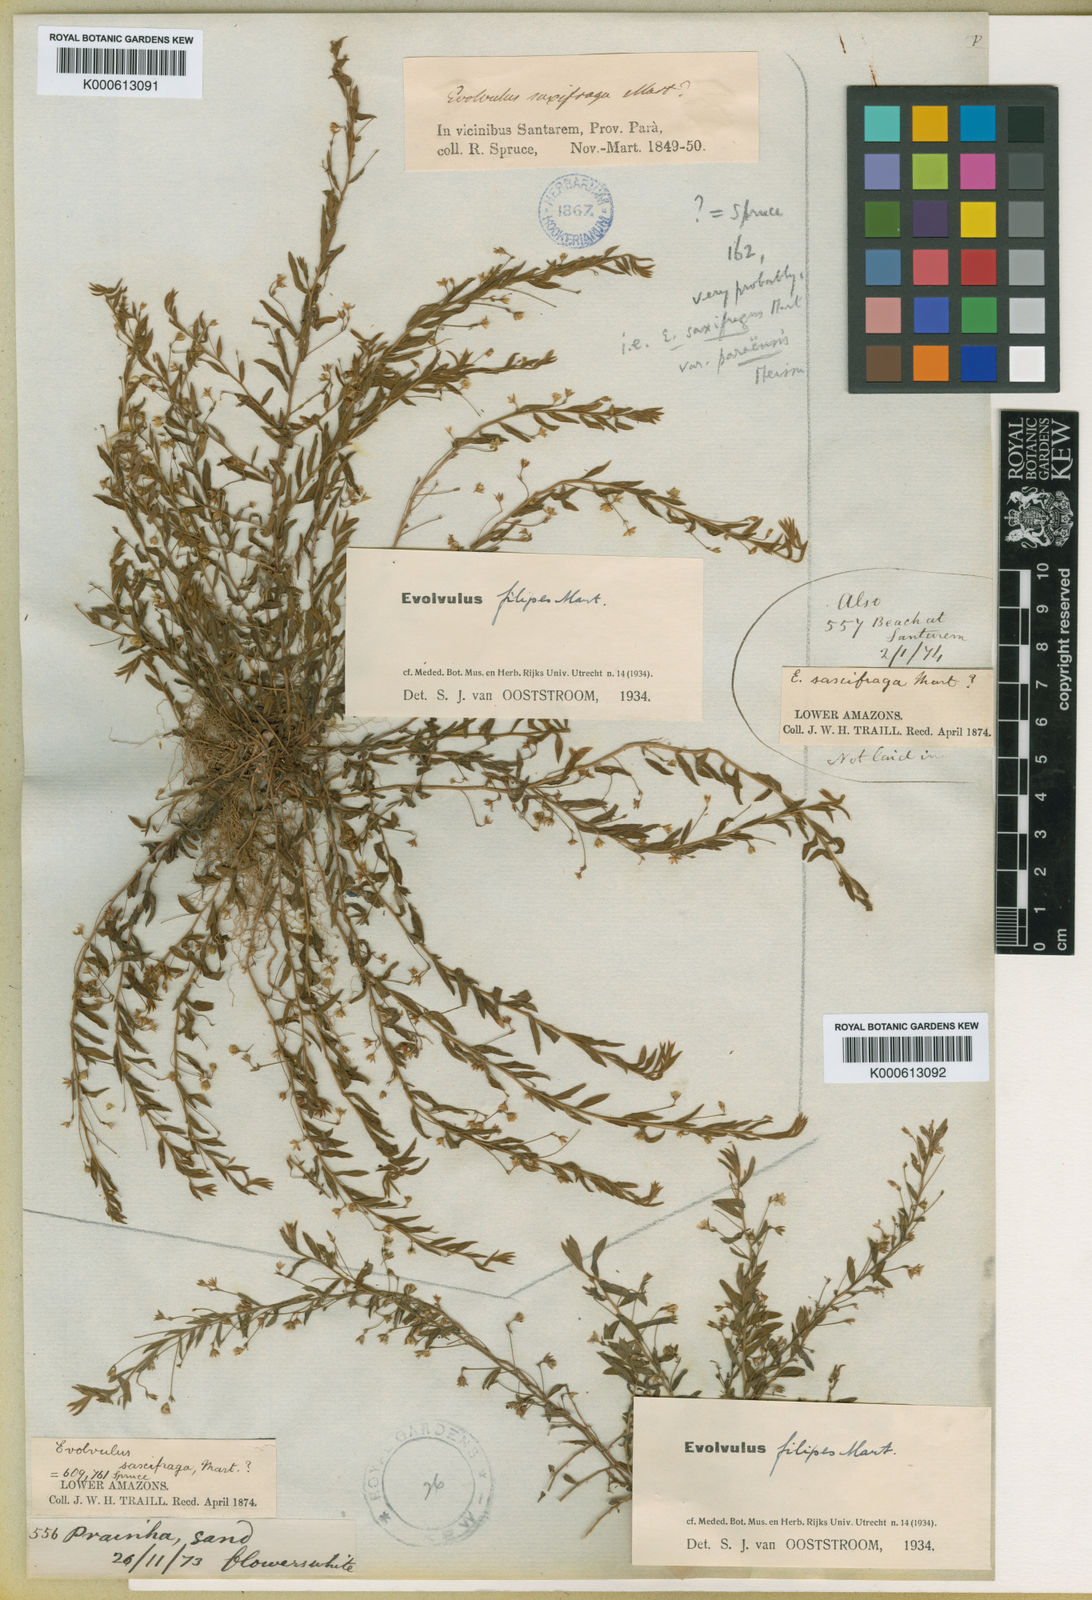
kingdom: Plantae
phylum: Tracheophyta
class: Magnoliopsida
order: Solanales
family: Convolvulaceae
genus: Evolvulus
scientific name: Evolvulus filipes
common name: Maryland dwarf morning-glory
